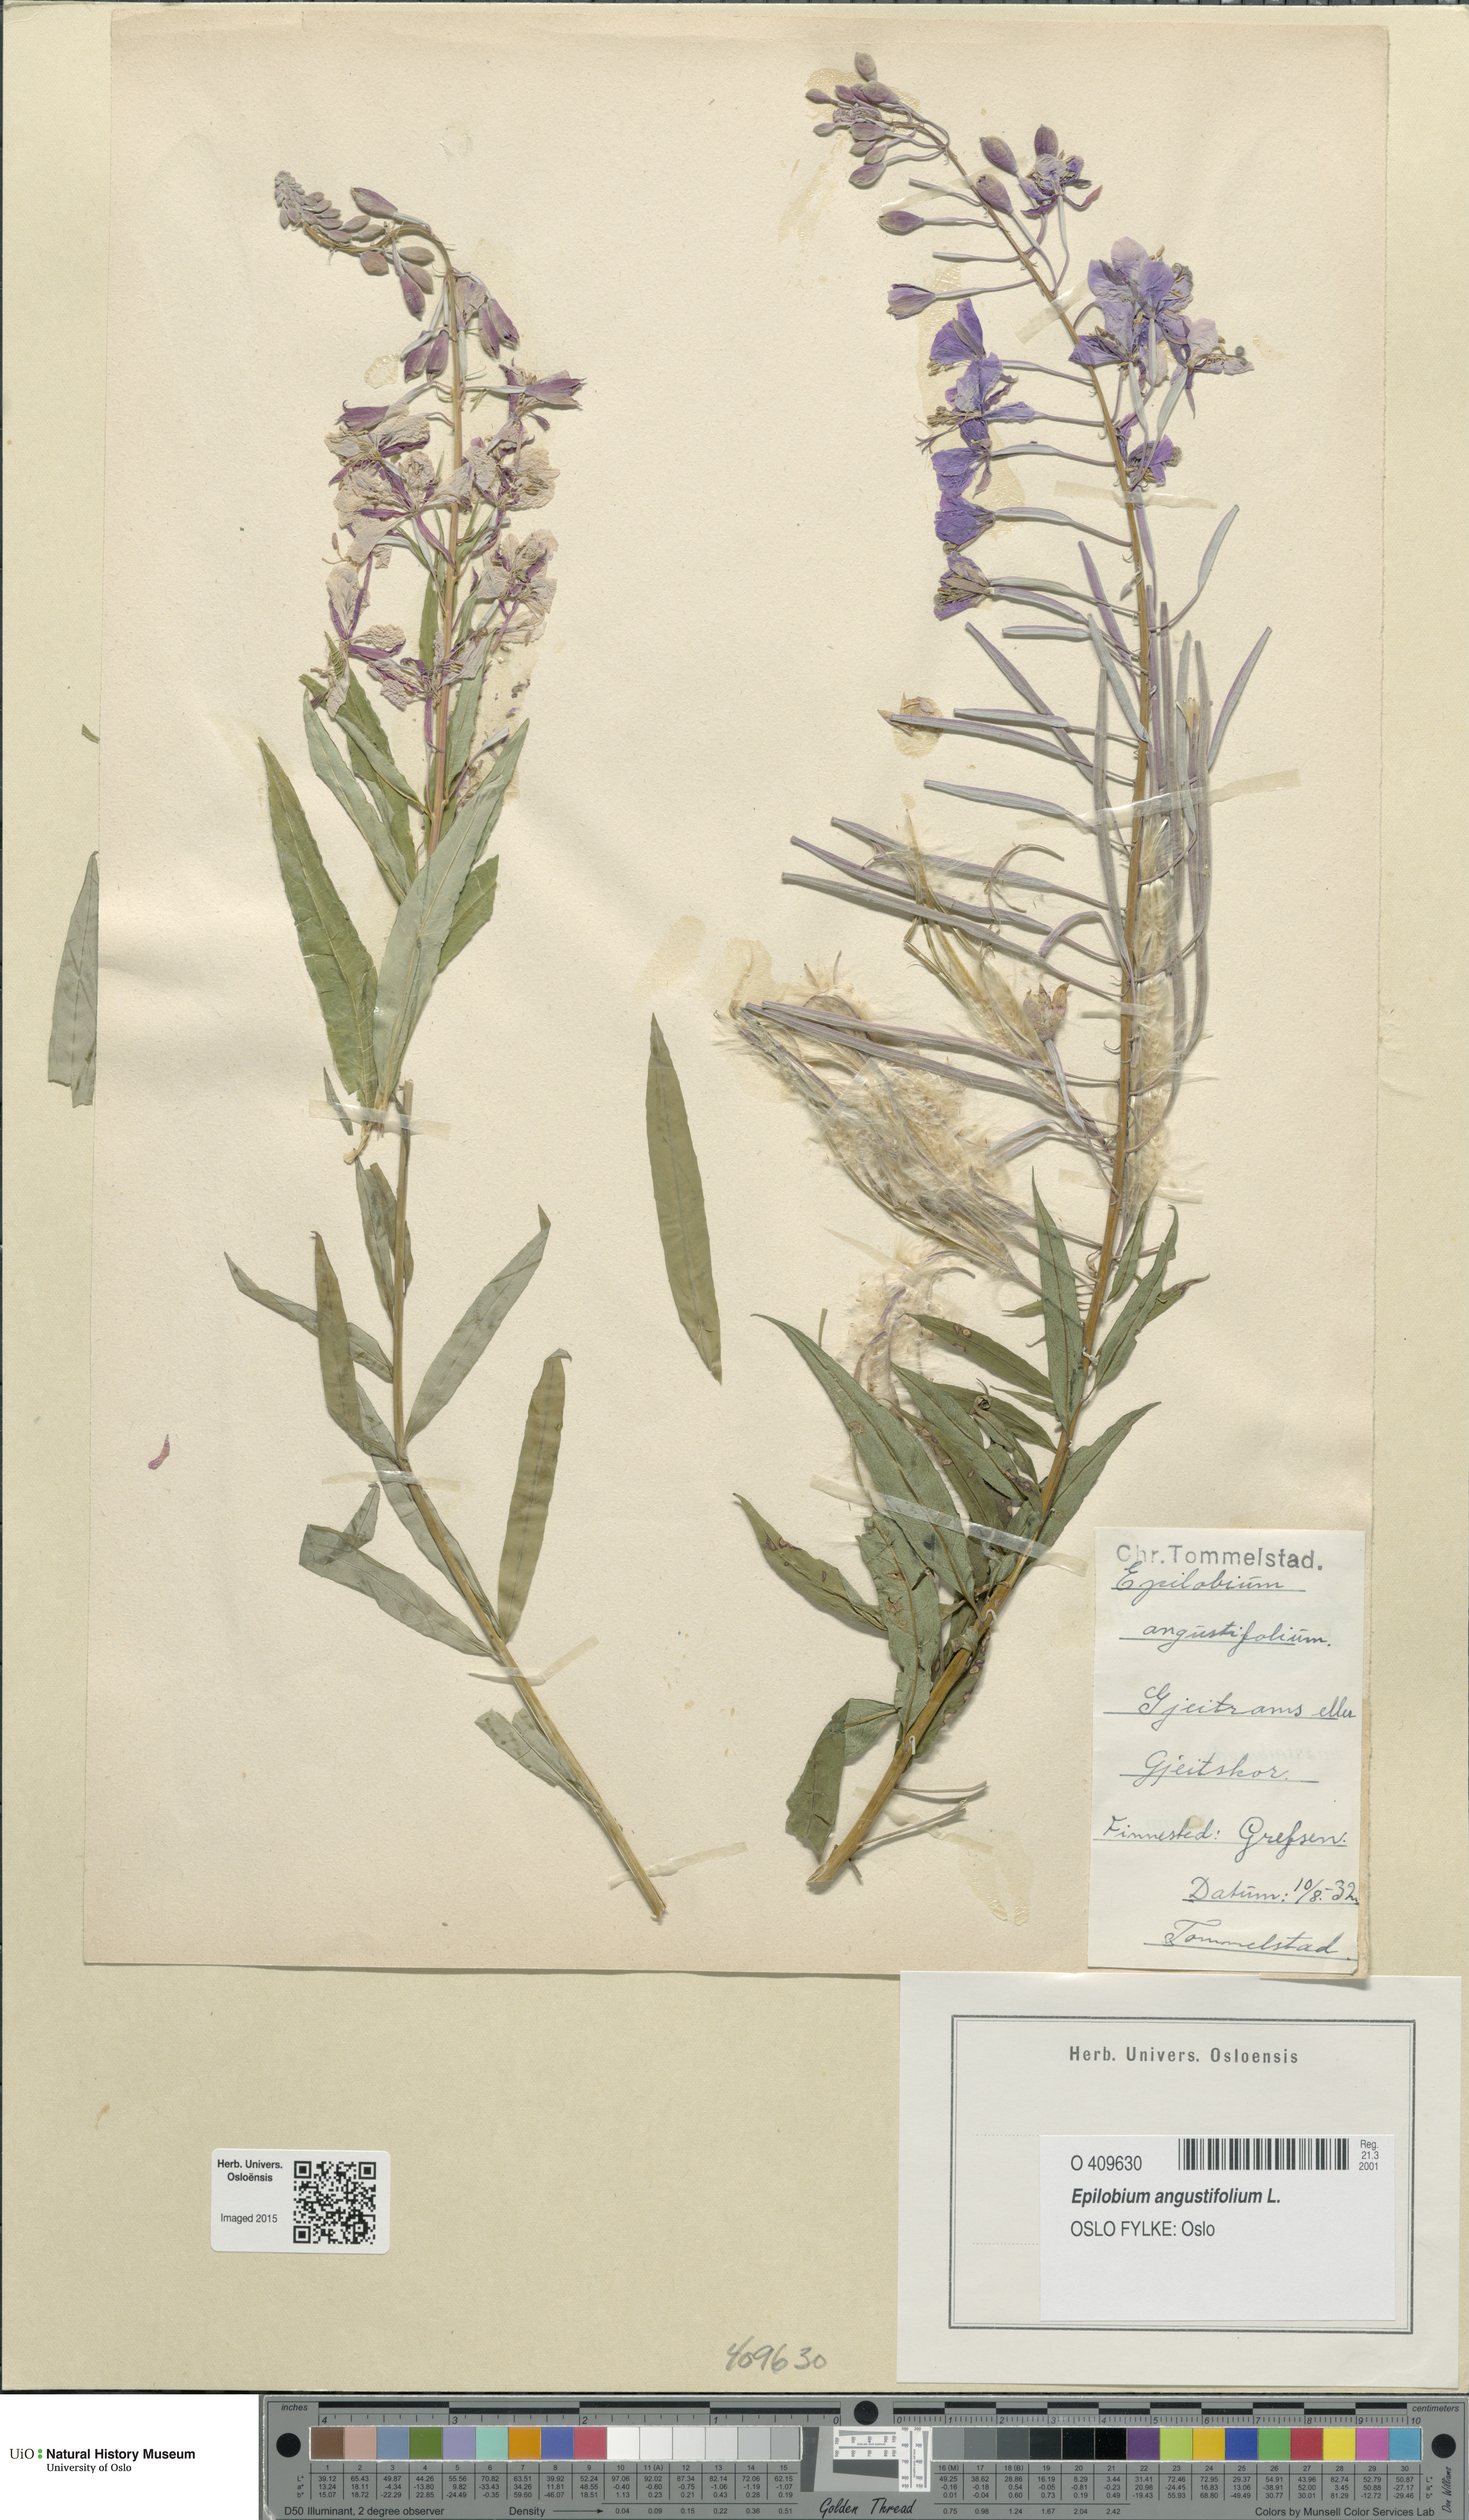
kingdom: Plantae
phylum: Tracheophyta
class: Magnoliopsida
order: Myrtales
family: Onagraceae
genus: Chamaenerion
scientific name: Chamaenerion angustifolium
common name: Fireweed
